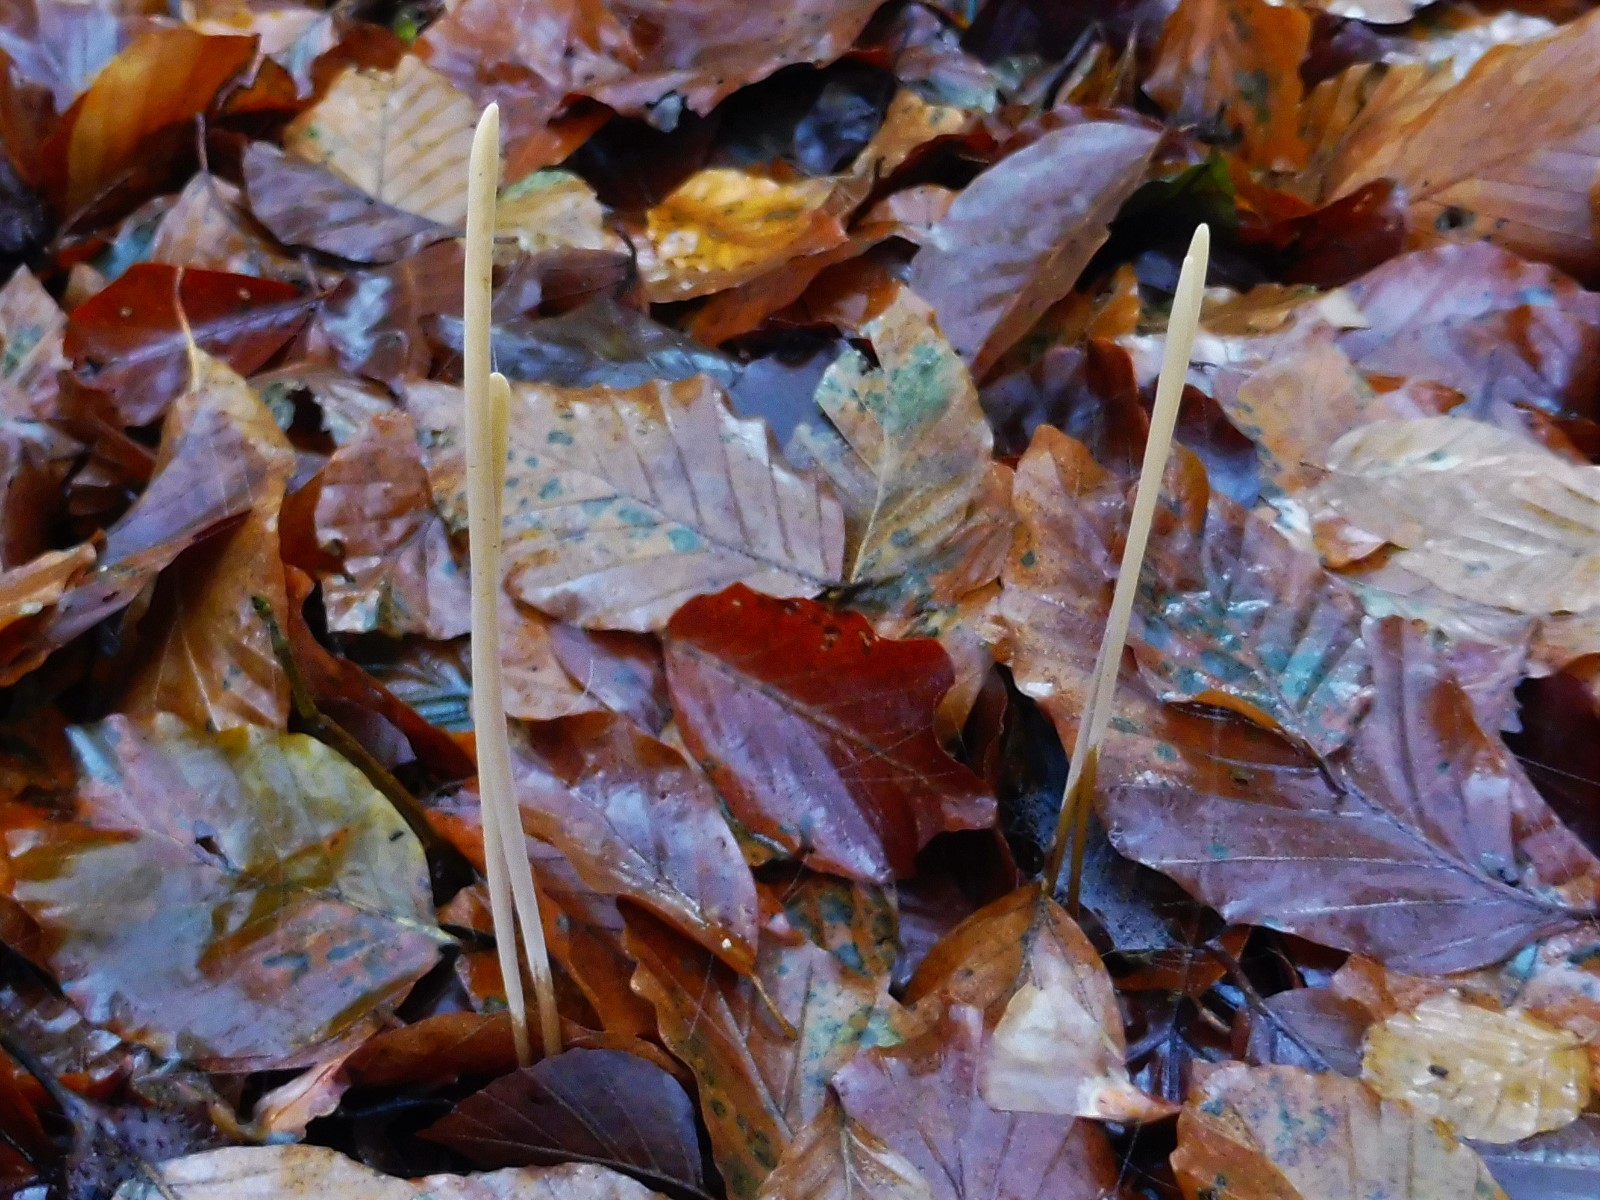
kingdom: Fungi
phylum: Basidiomycota
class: Agaricomycetes
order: Agaricales
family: Typhulaceae
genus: Typhula
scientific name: Typhula fistulosa
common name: pibet rørkølle
